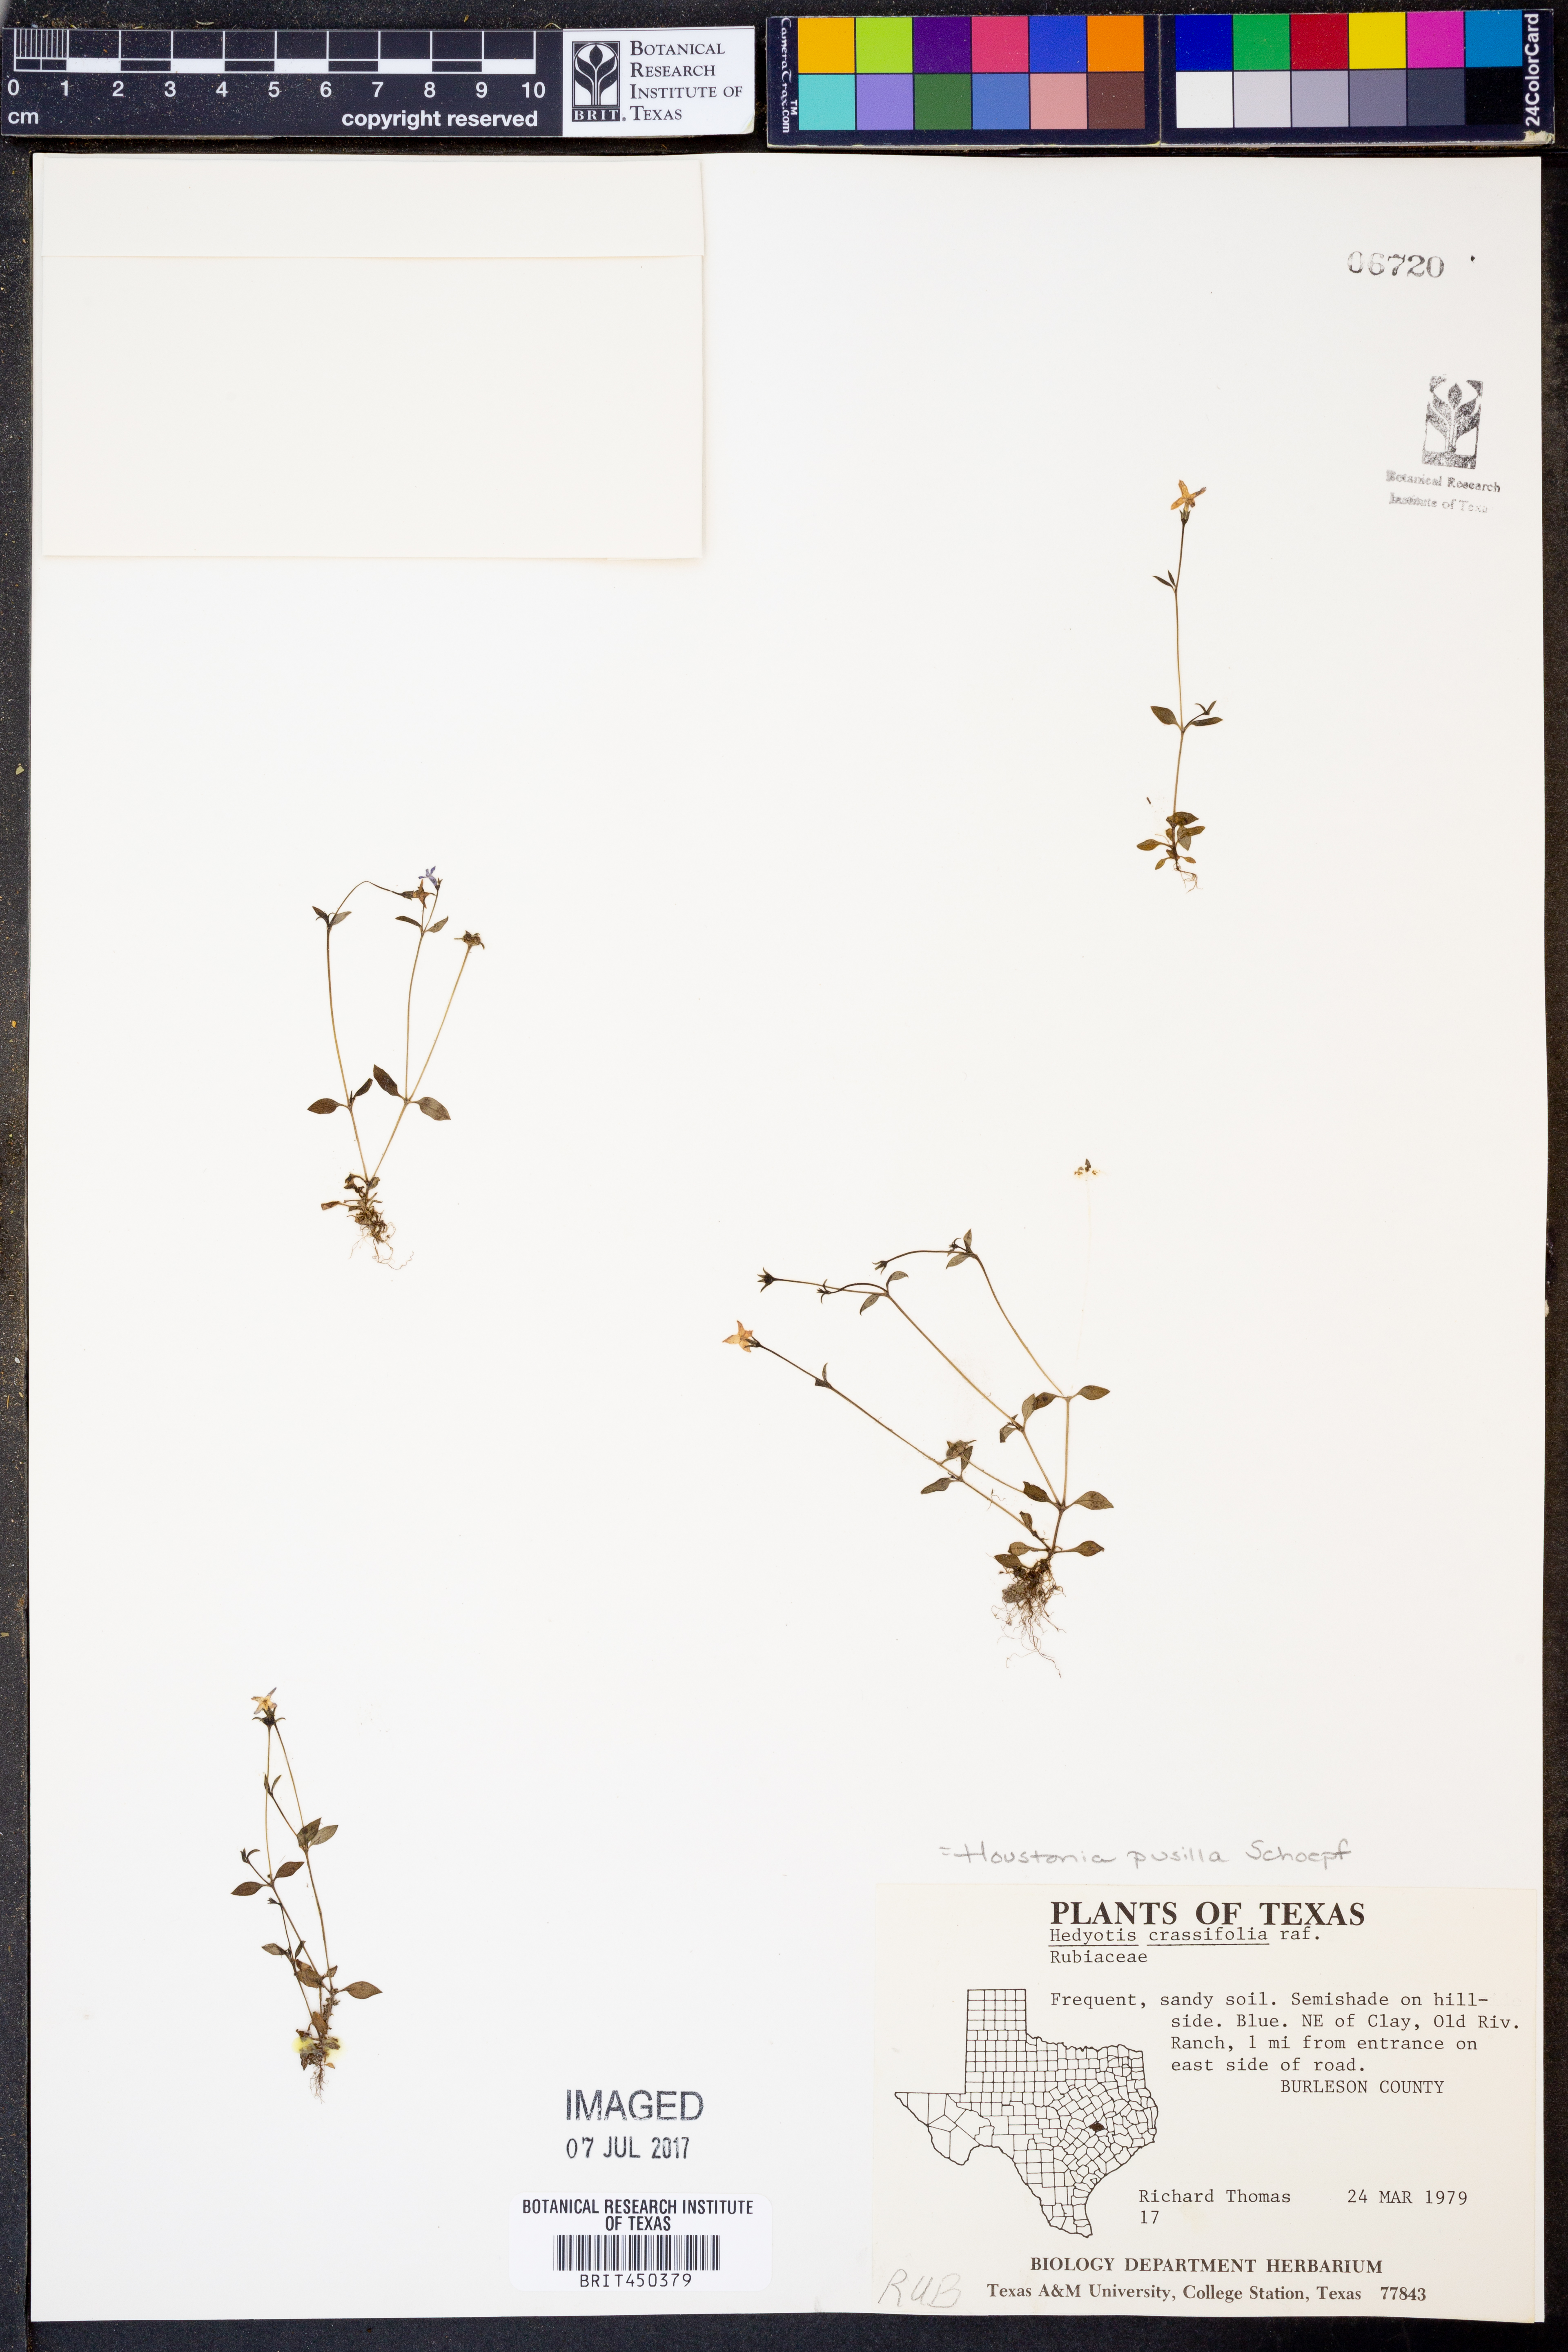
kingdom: Plantae
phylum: Tracheophyta
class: Magnoliopsida
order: Gentianales
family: Rubiaceae
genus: Houstonia
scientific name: Houstonia pusilla
